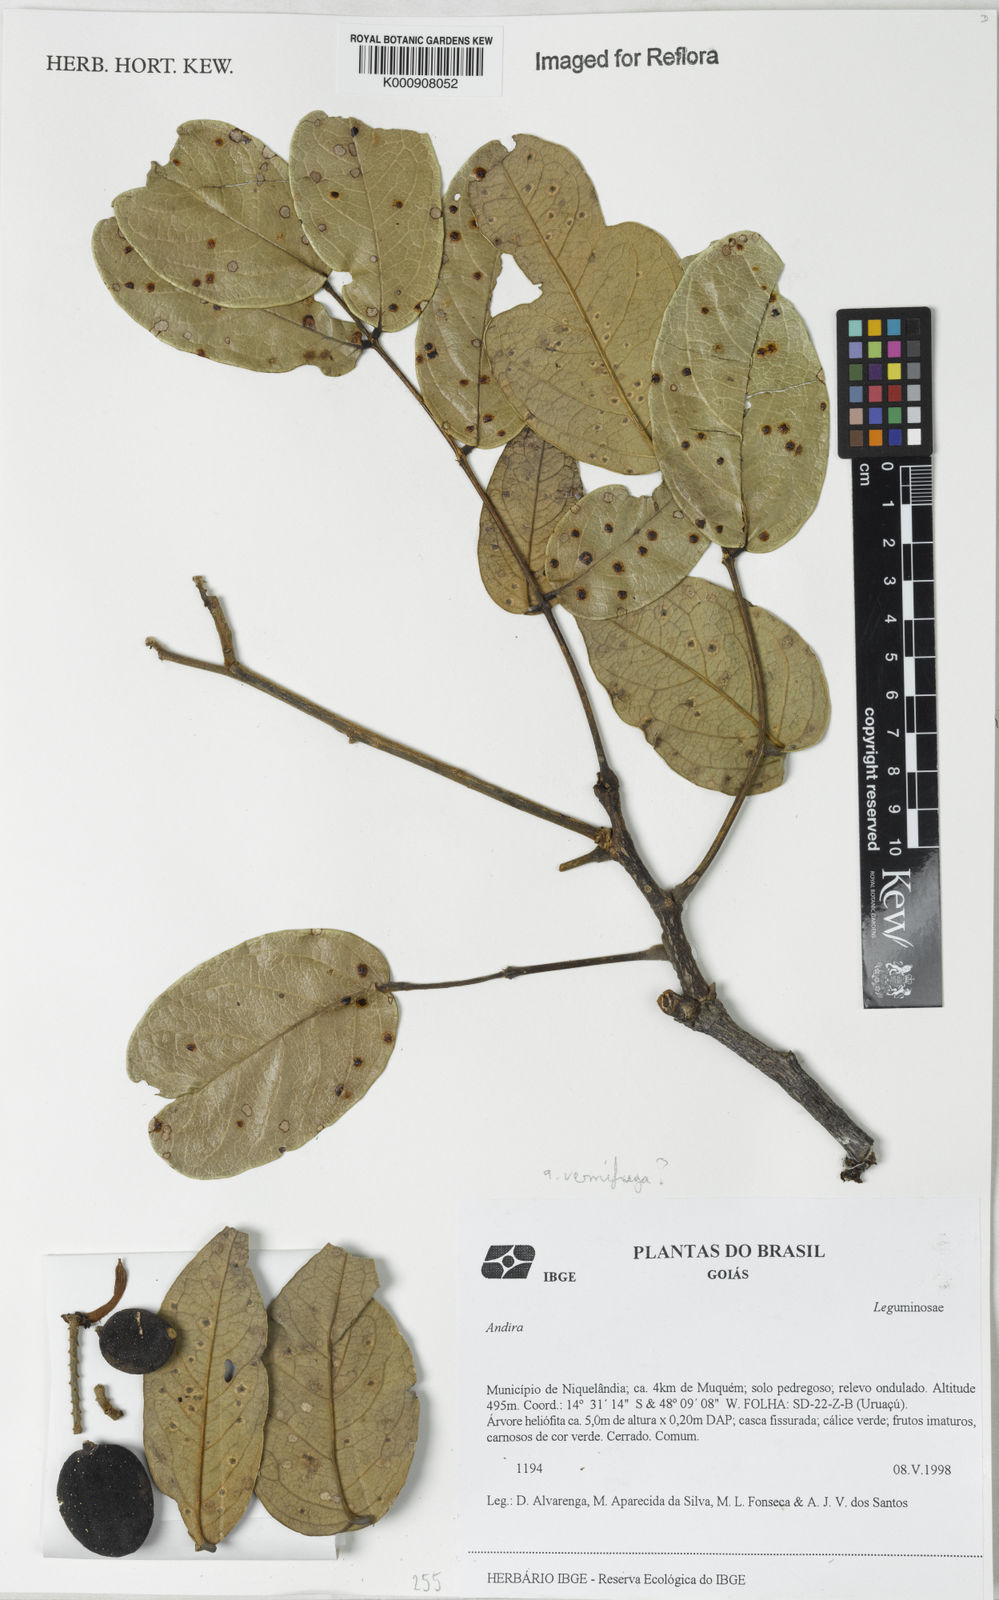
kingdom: Plantae
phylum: Tracheophyta
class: Magnoliopsida
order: Fabales
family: Fabaceae
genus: Andira
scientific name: Andira
